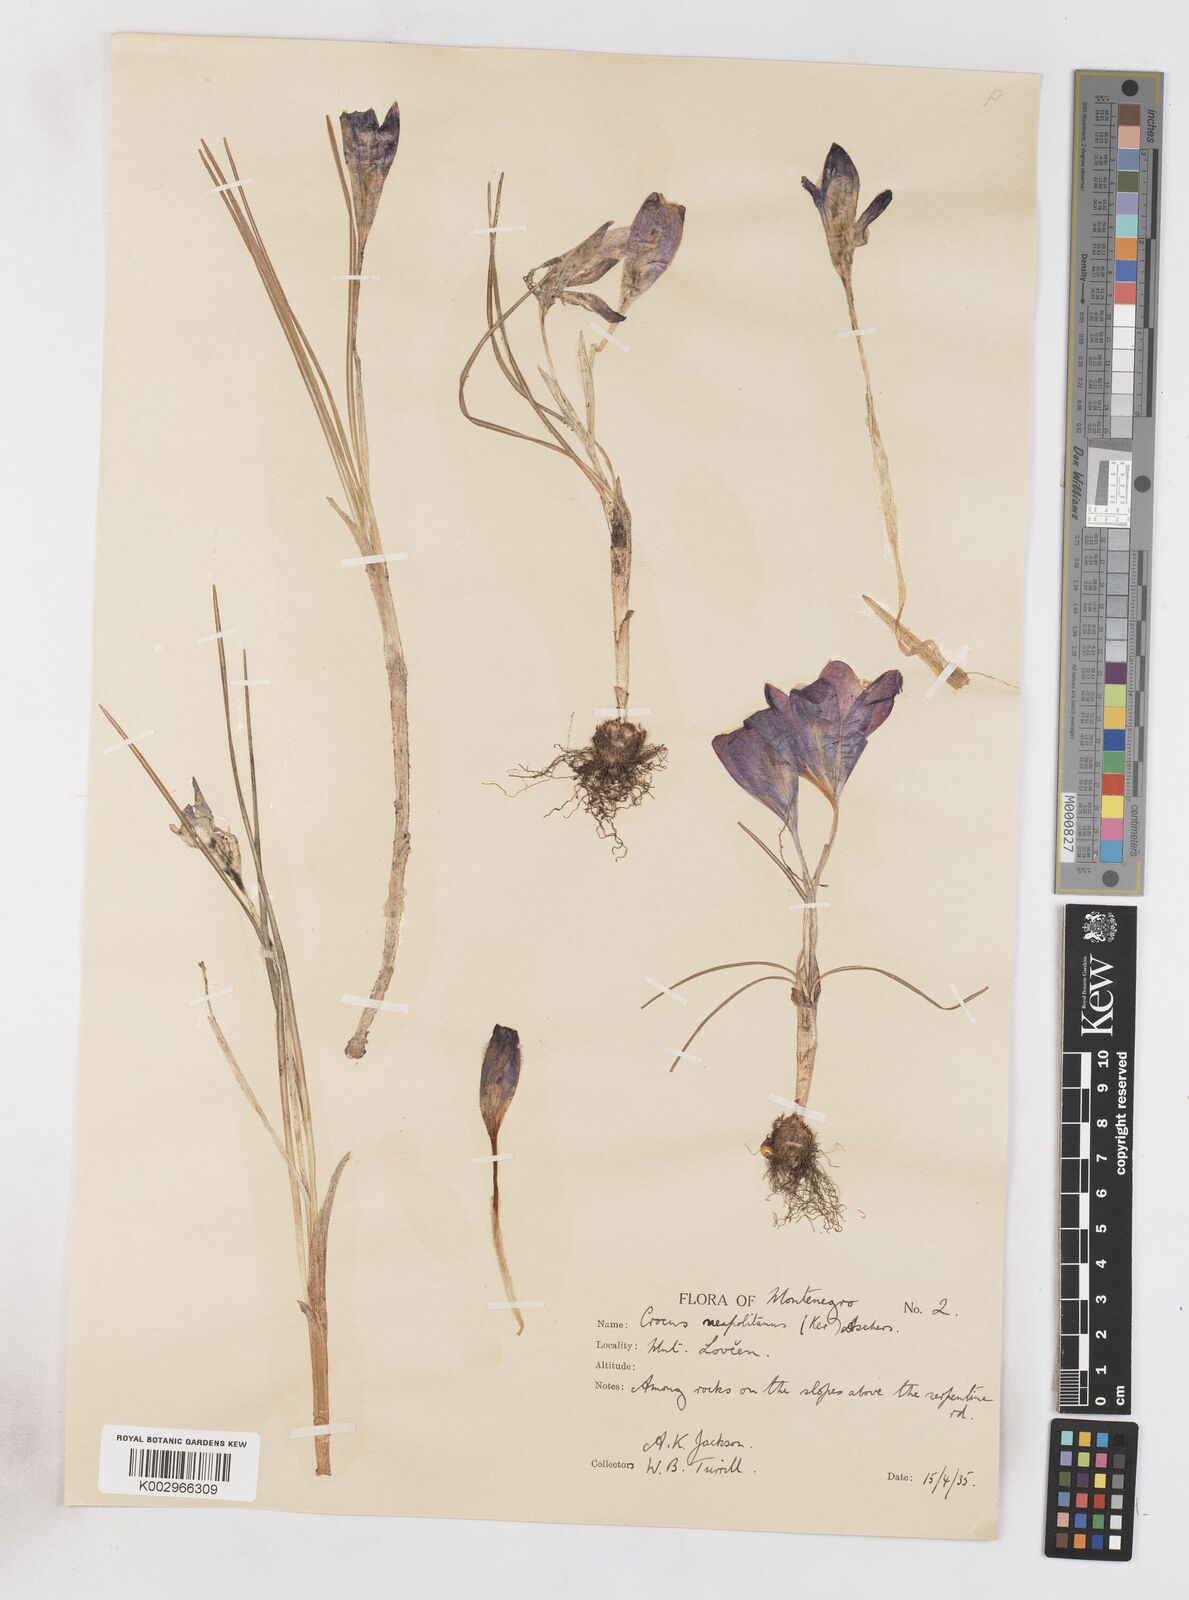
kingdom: Plantae
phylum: Tracheophyta
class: Liliopsida
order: Asparagales
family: Iridaceae
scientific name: Iridaceae
